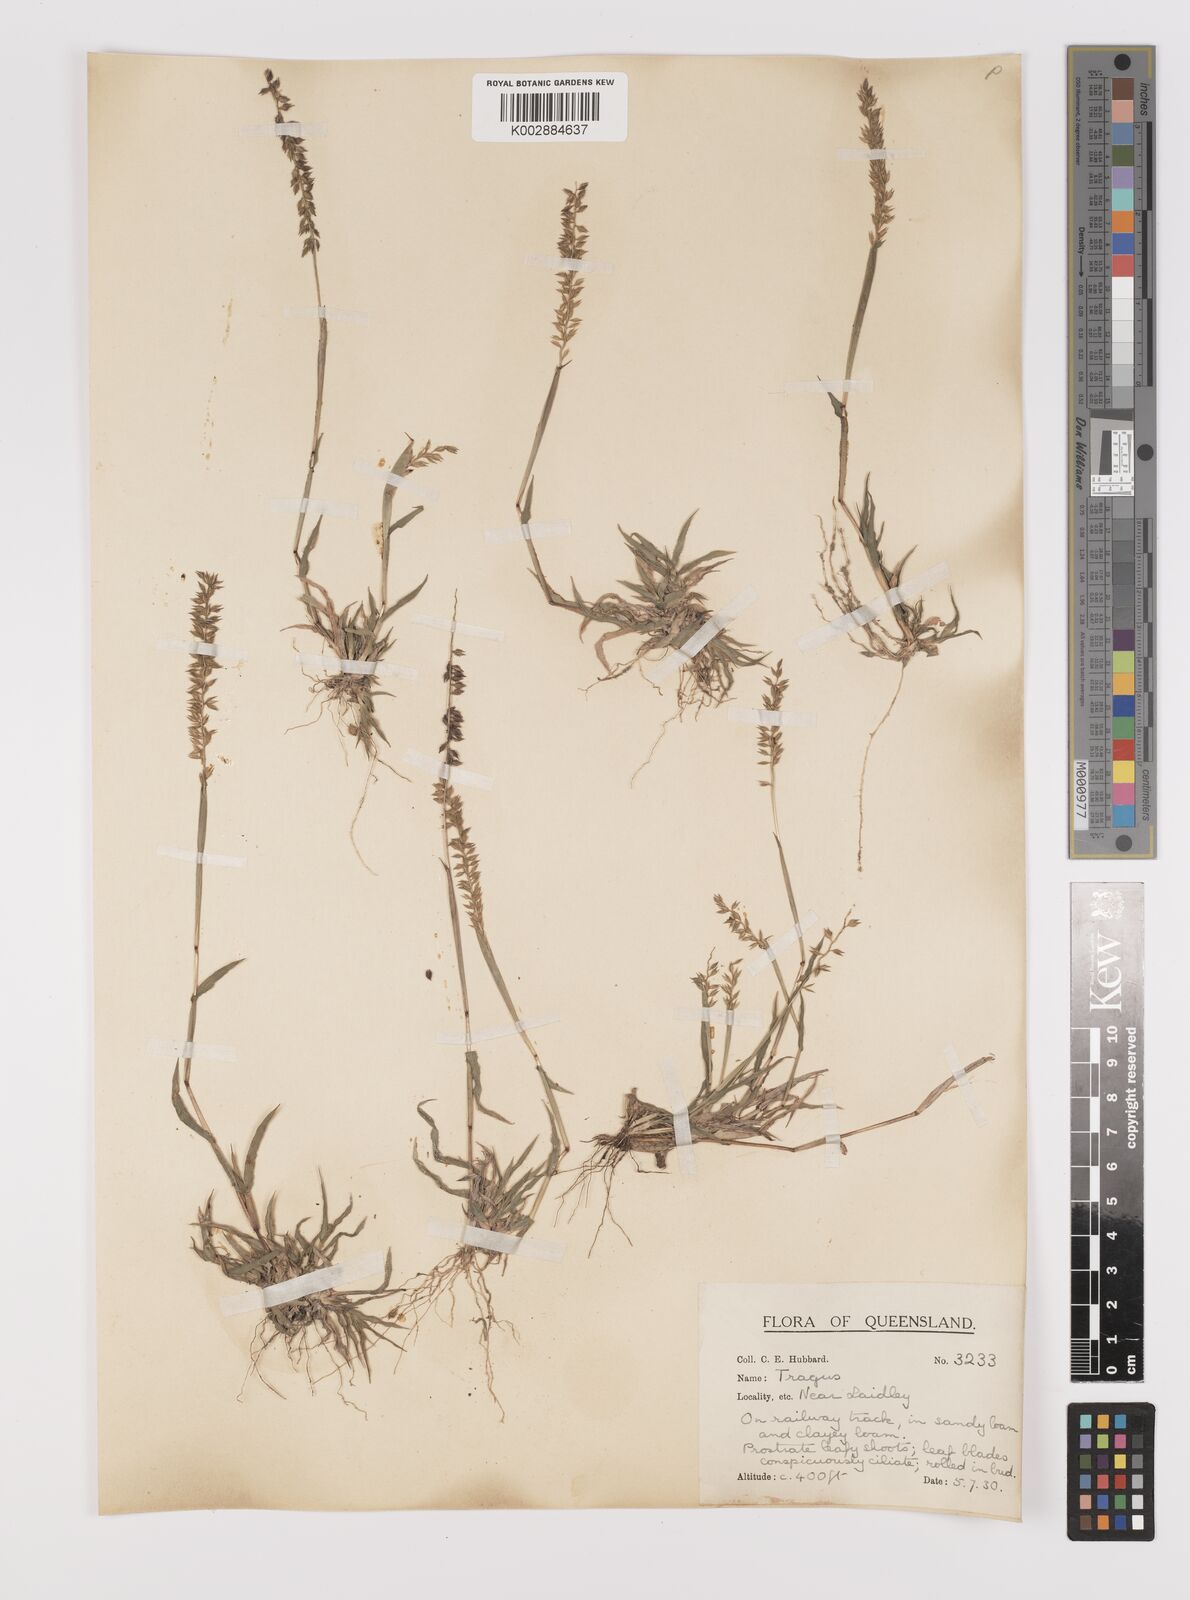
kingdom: Plantae
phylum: Tracheophyta
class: Liliopsida
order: Poales
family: Poaceae
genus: Tragus
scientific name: Tragus australianus
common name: Australian bur-grass
